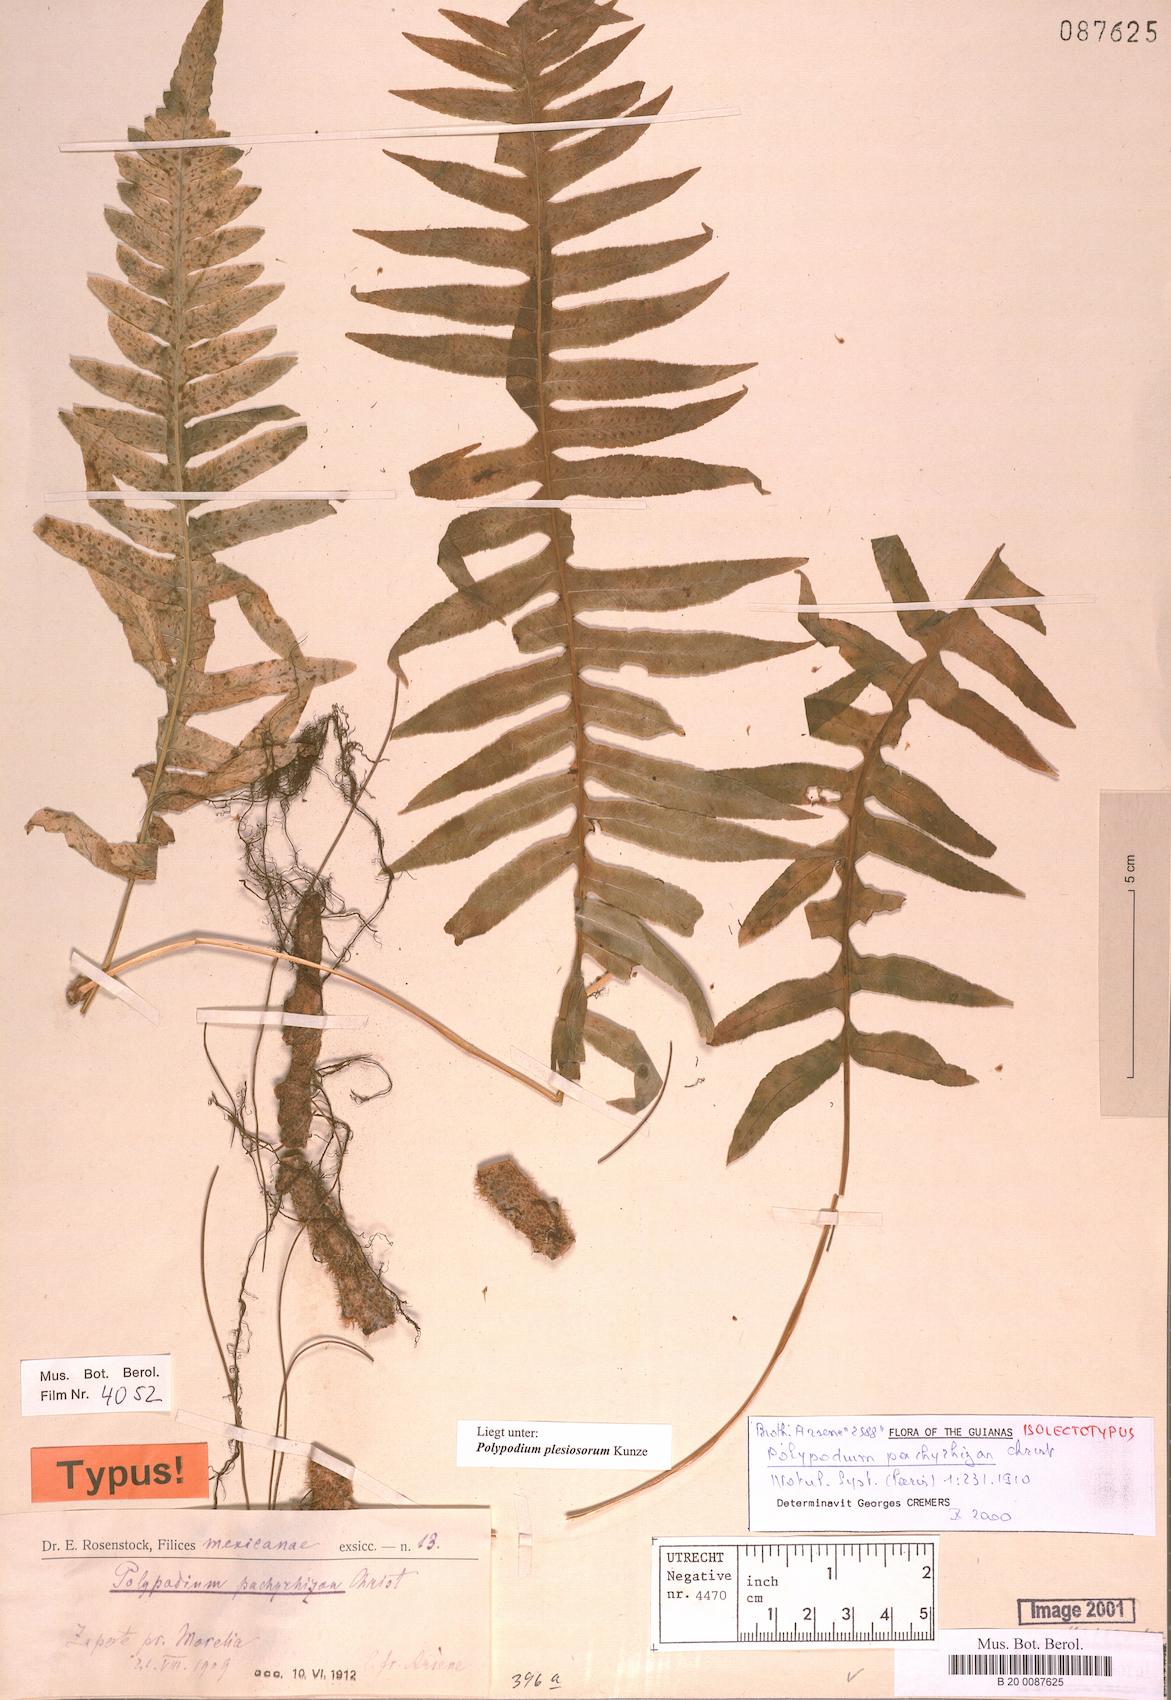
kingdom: Plantae
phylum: Tracheophyta
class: Polypodiopsida
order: Polypodiales
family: Polypodiaceae
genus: Polypodium
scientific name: Polypodium plesiosorum
